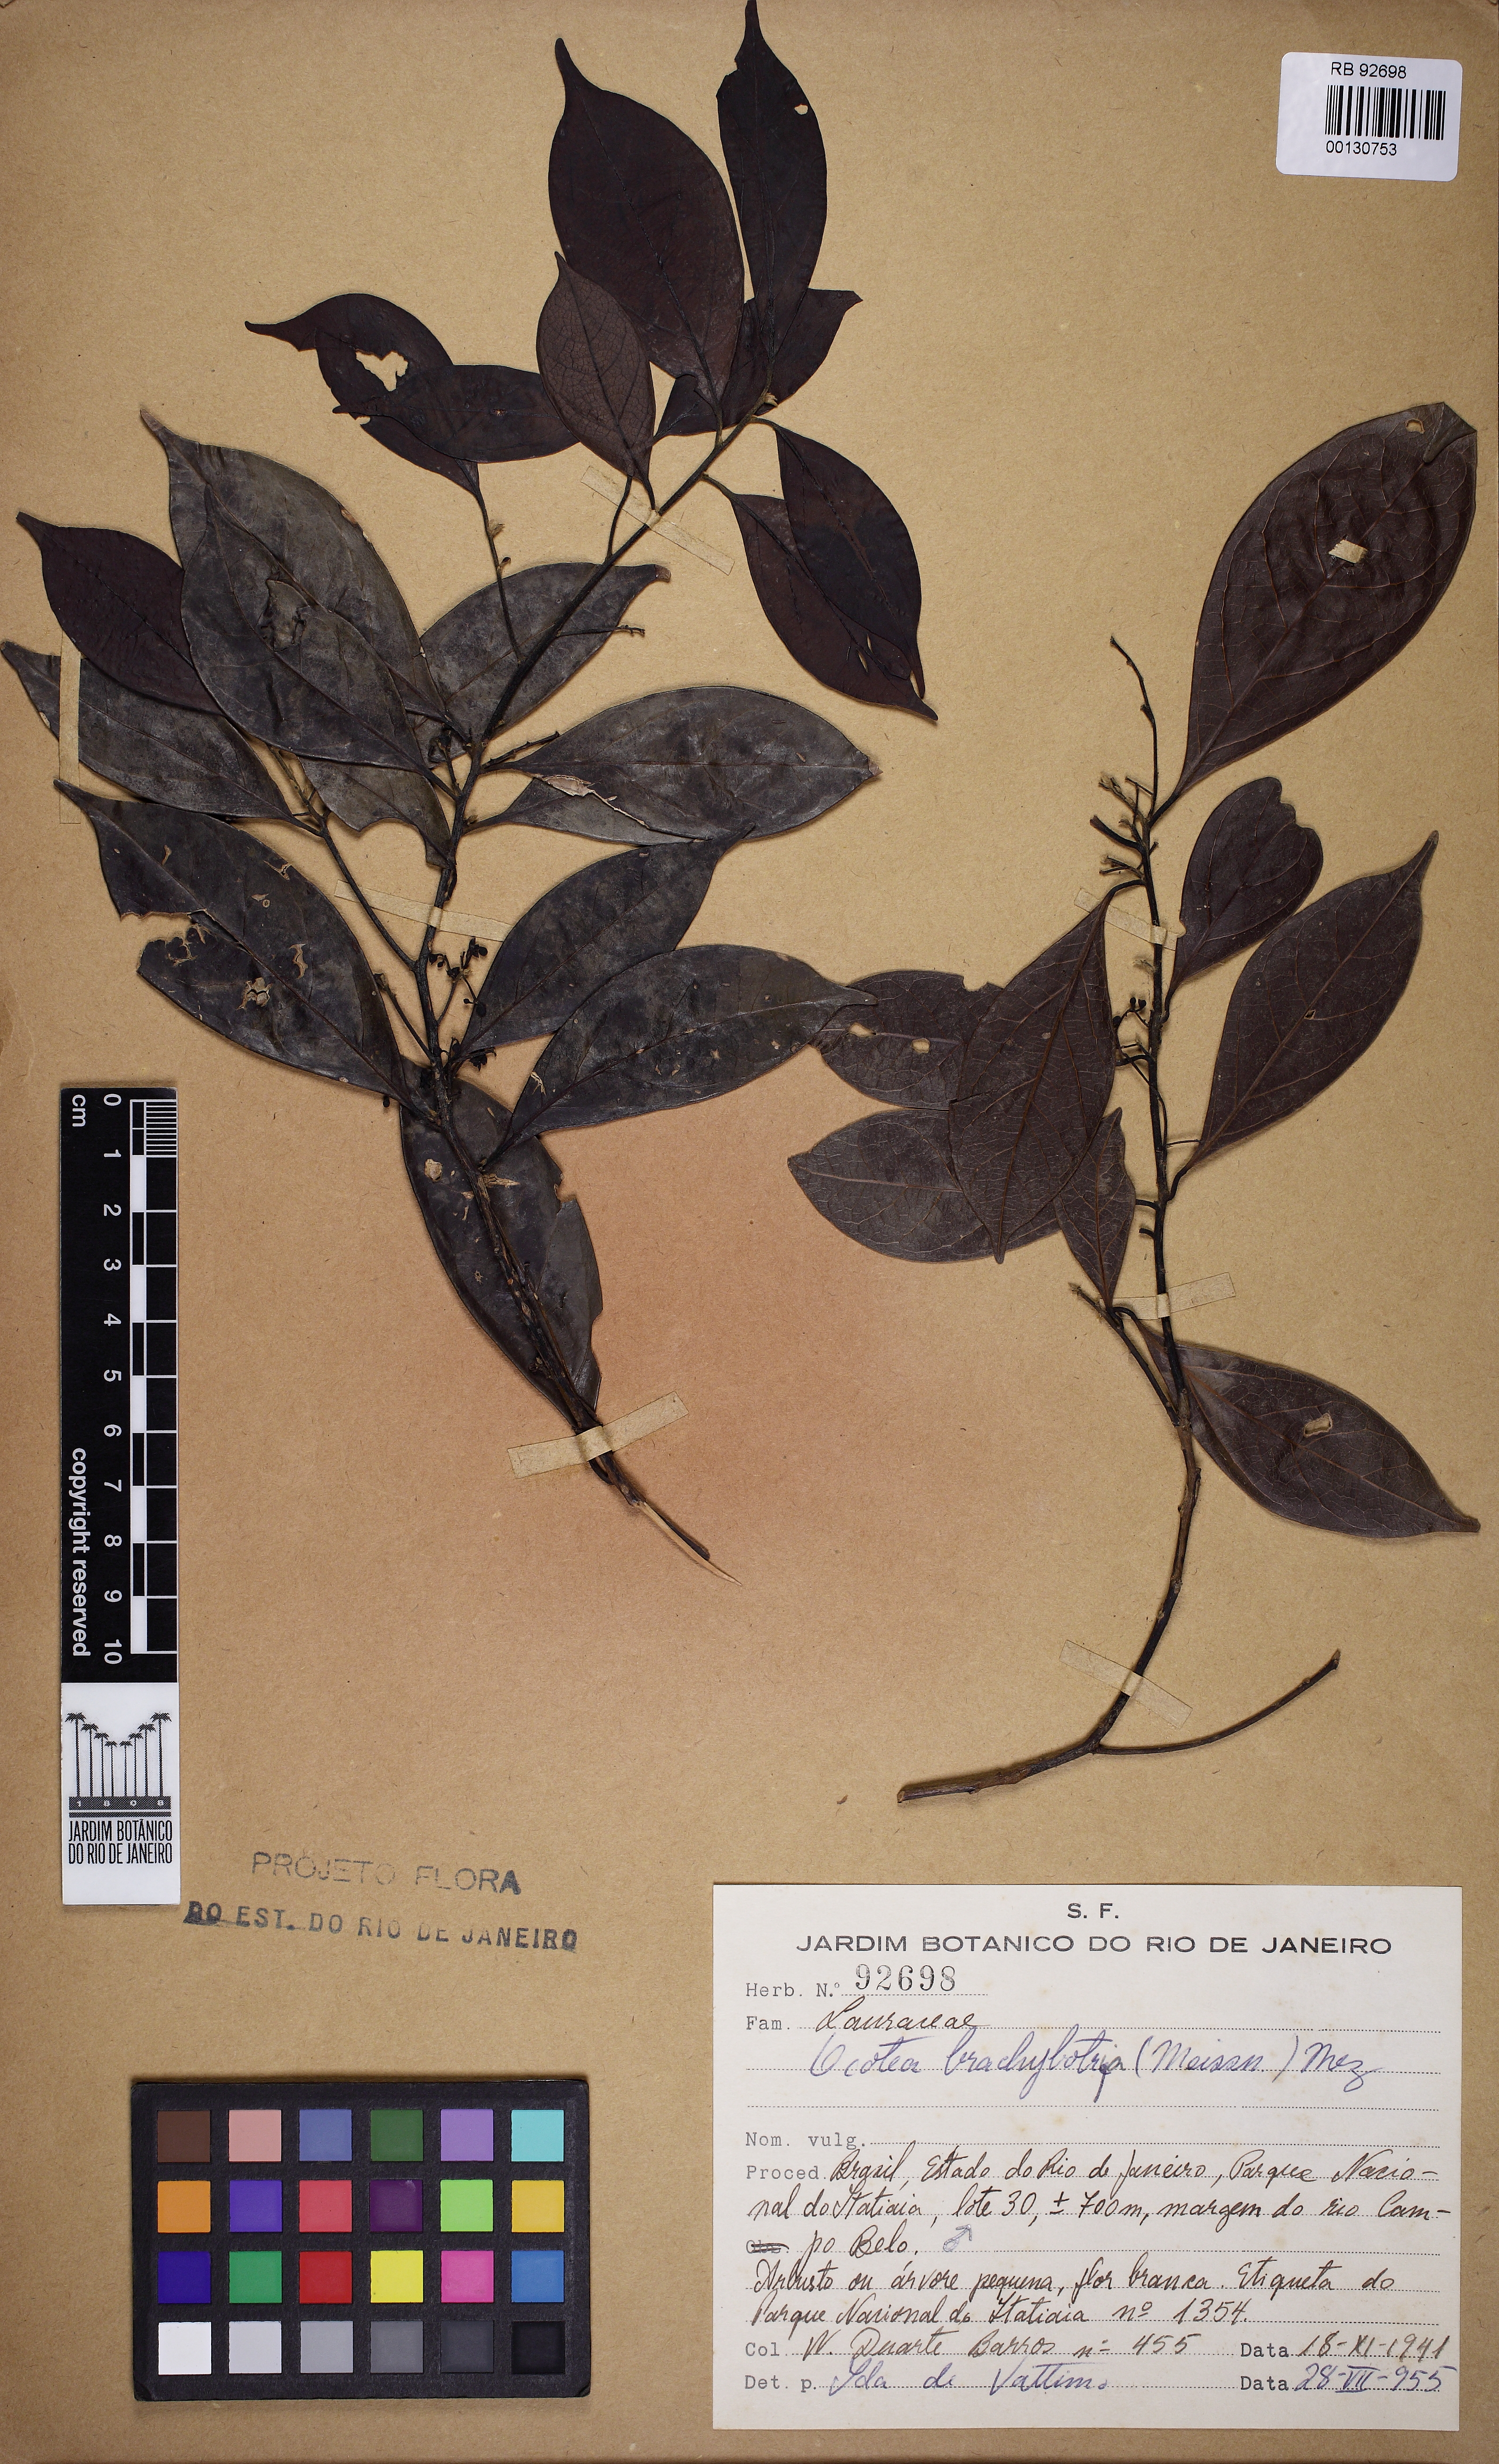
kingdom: Plantae
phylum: Tracheophyta
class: Magnoliopsida
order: Laurales
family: Lauraceae
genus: Ocotea
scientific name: Ocotea brachybotra
